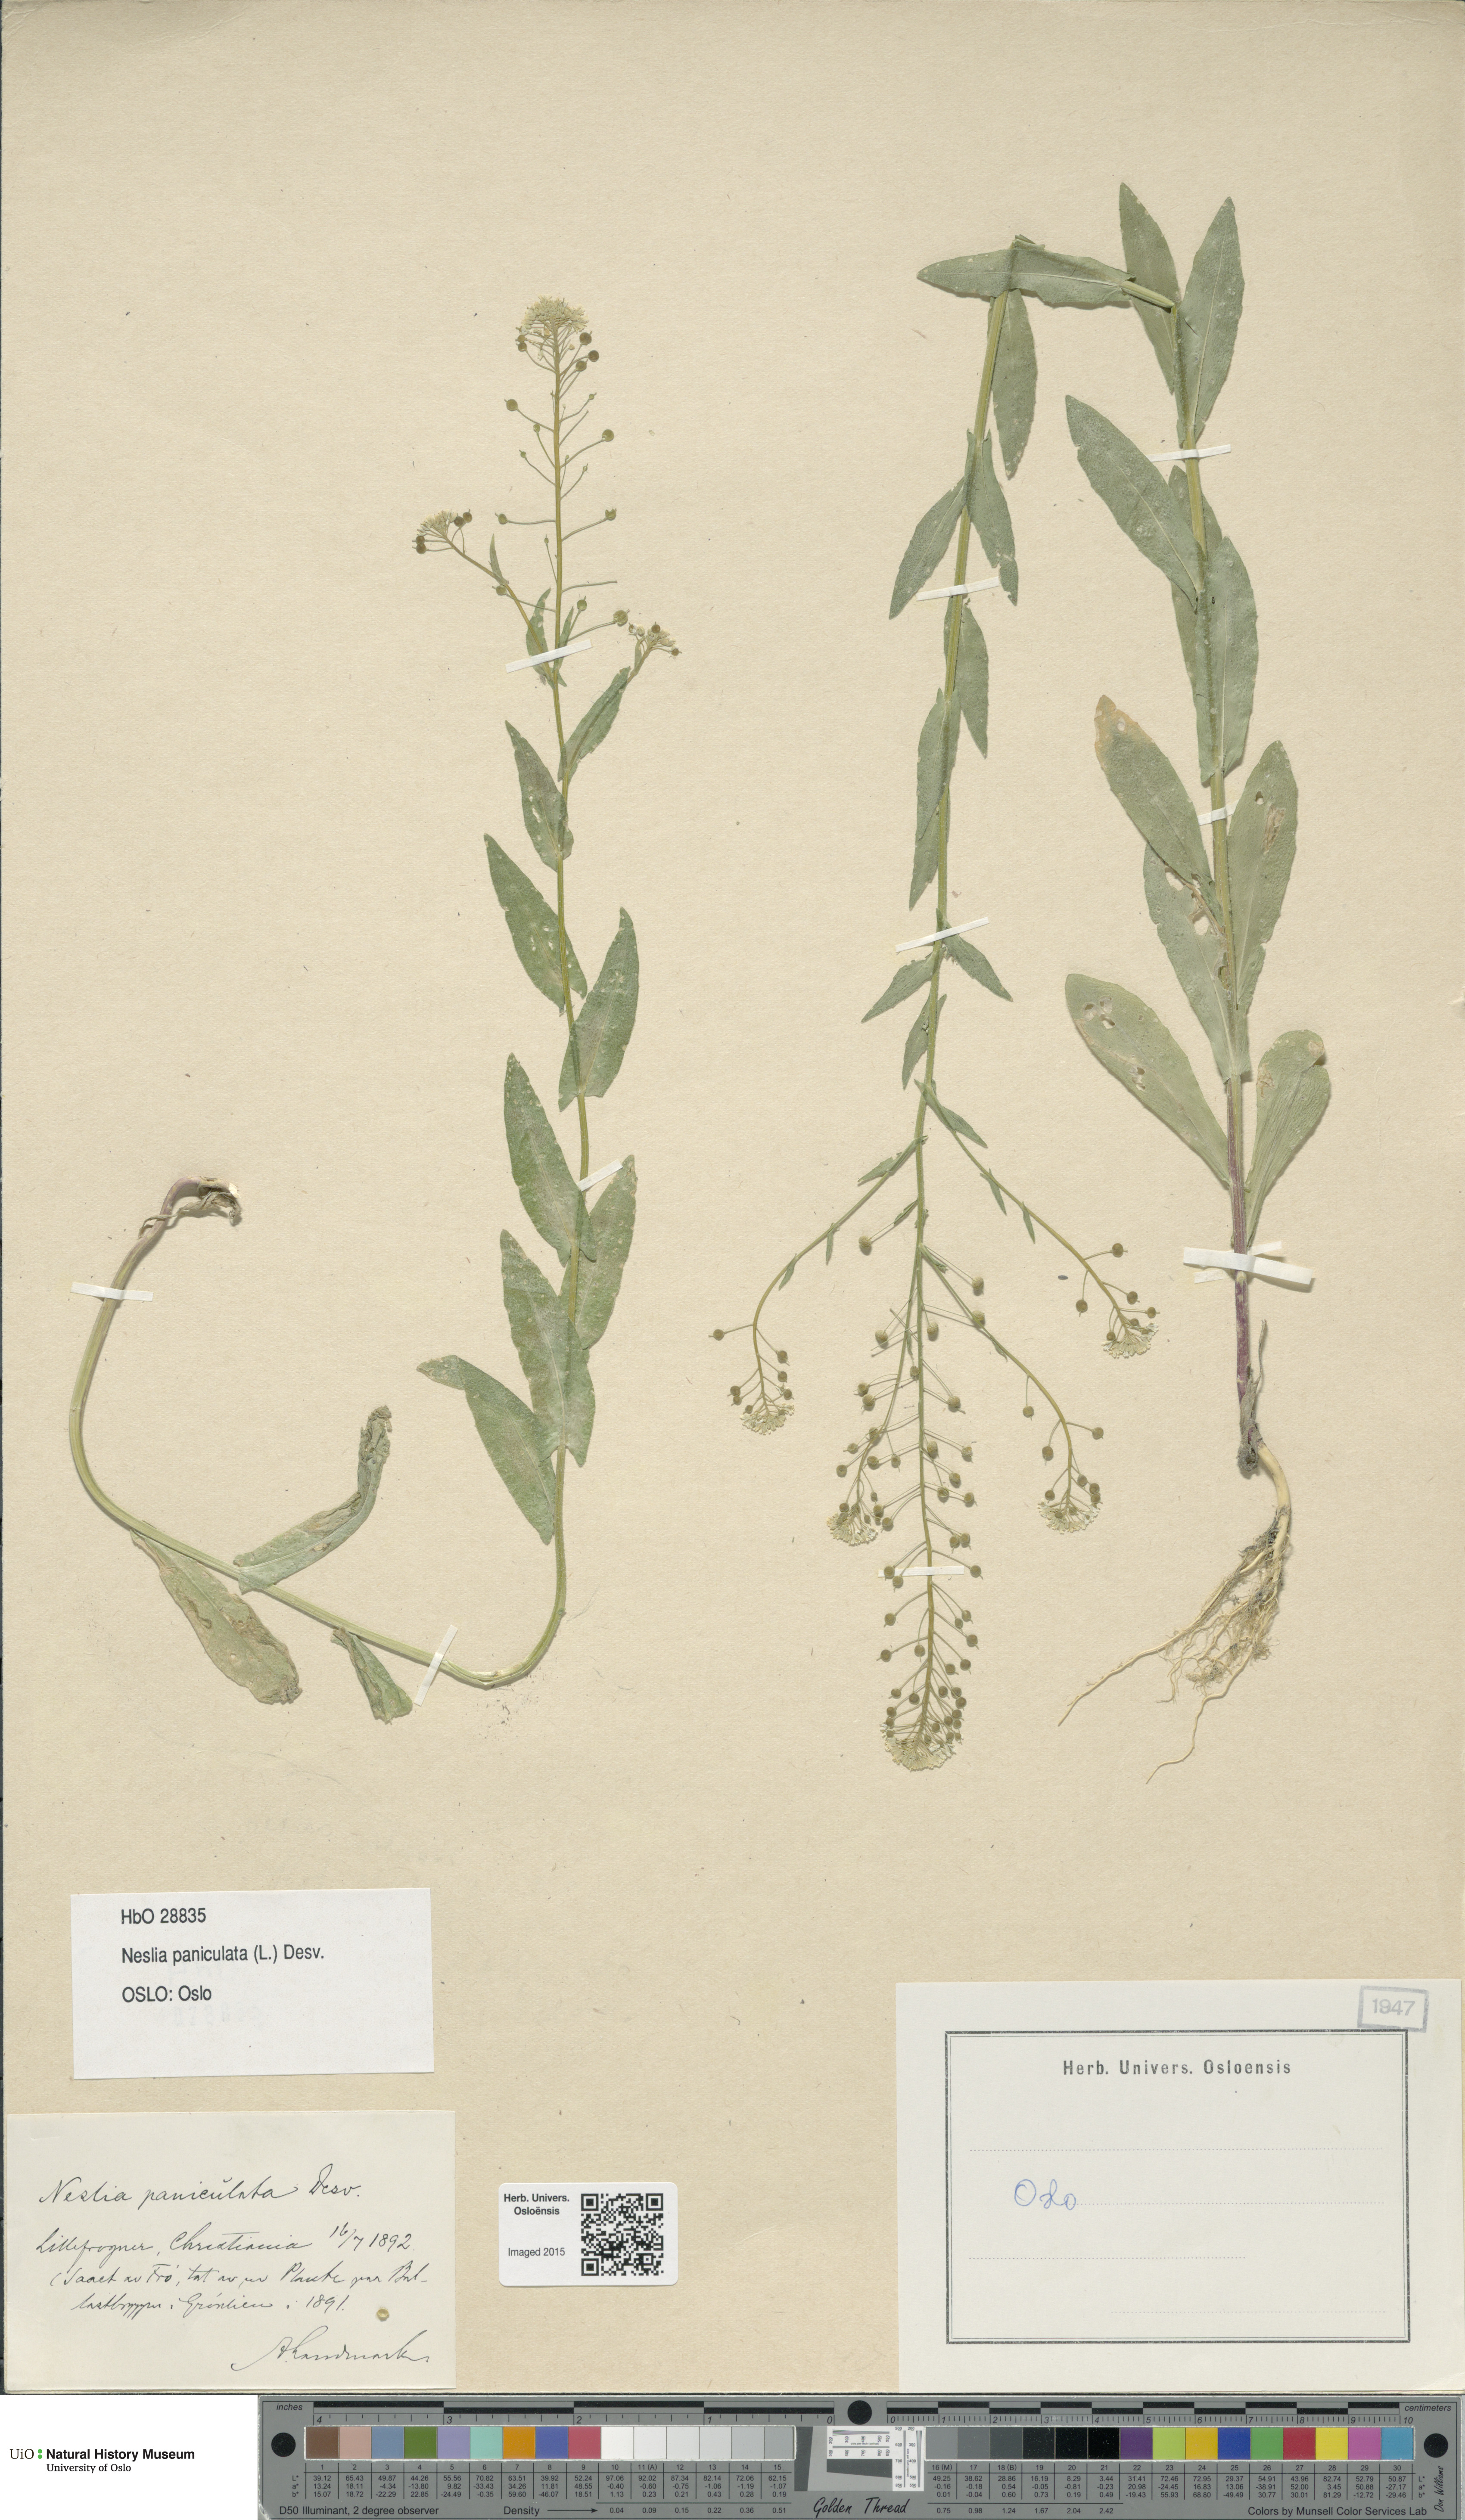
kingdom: Plantae
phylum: Tracheophyta
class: Magnoliopsida
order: Brassicales
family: Brassicaceae
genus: Neslia
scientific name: Neslia paniculata
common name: Ball mustard
